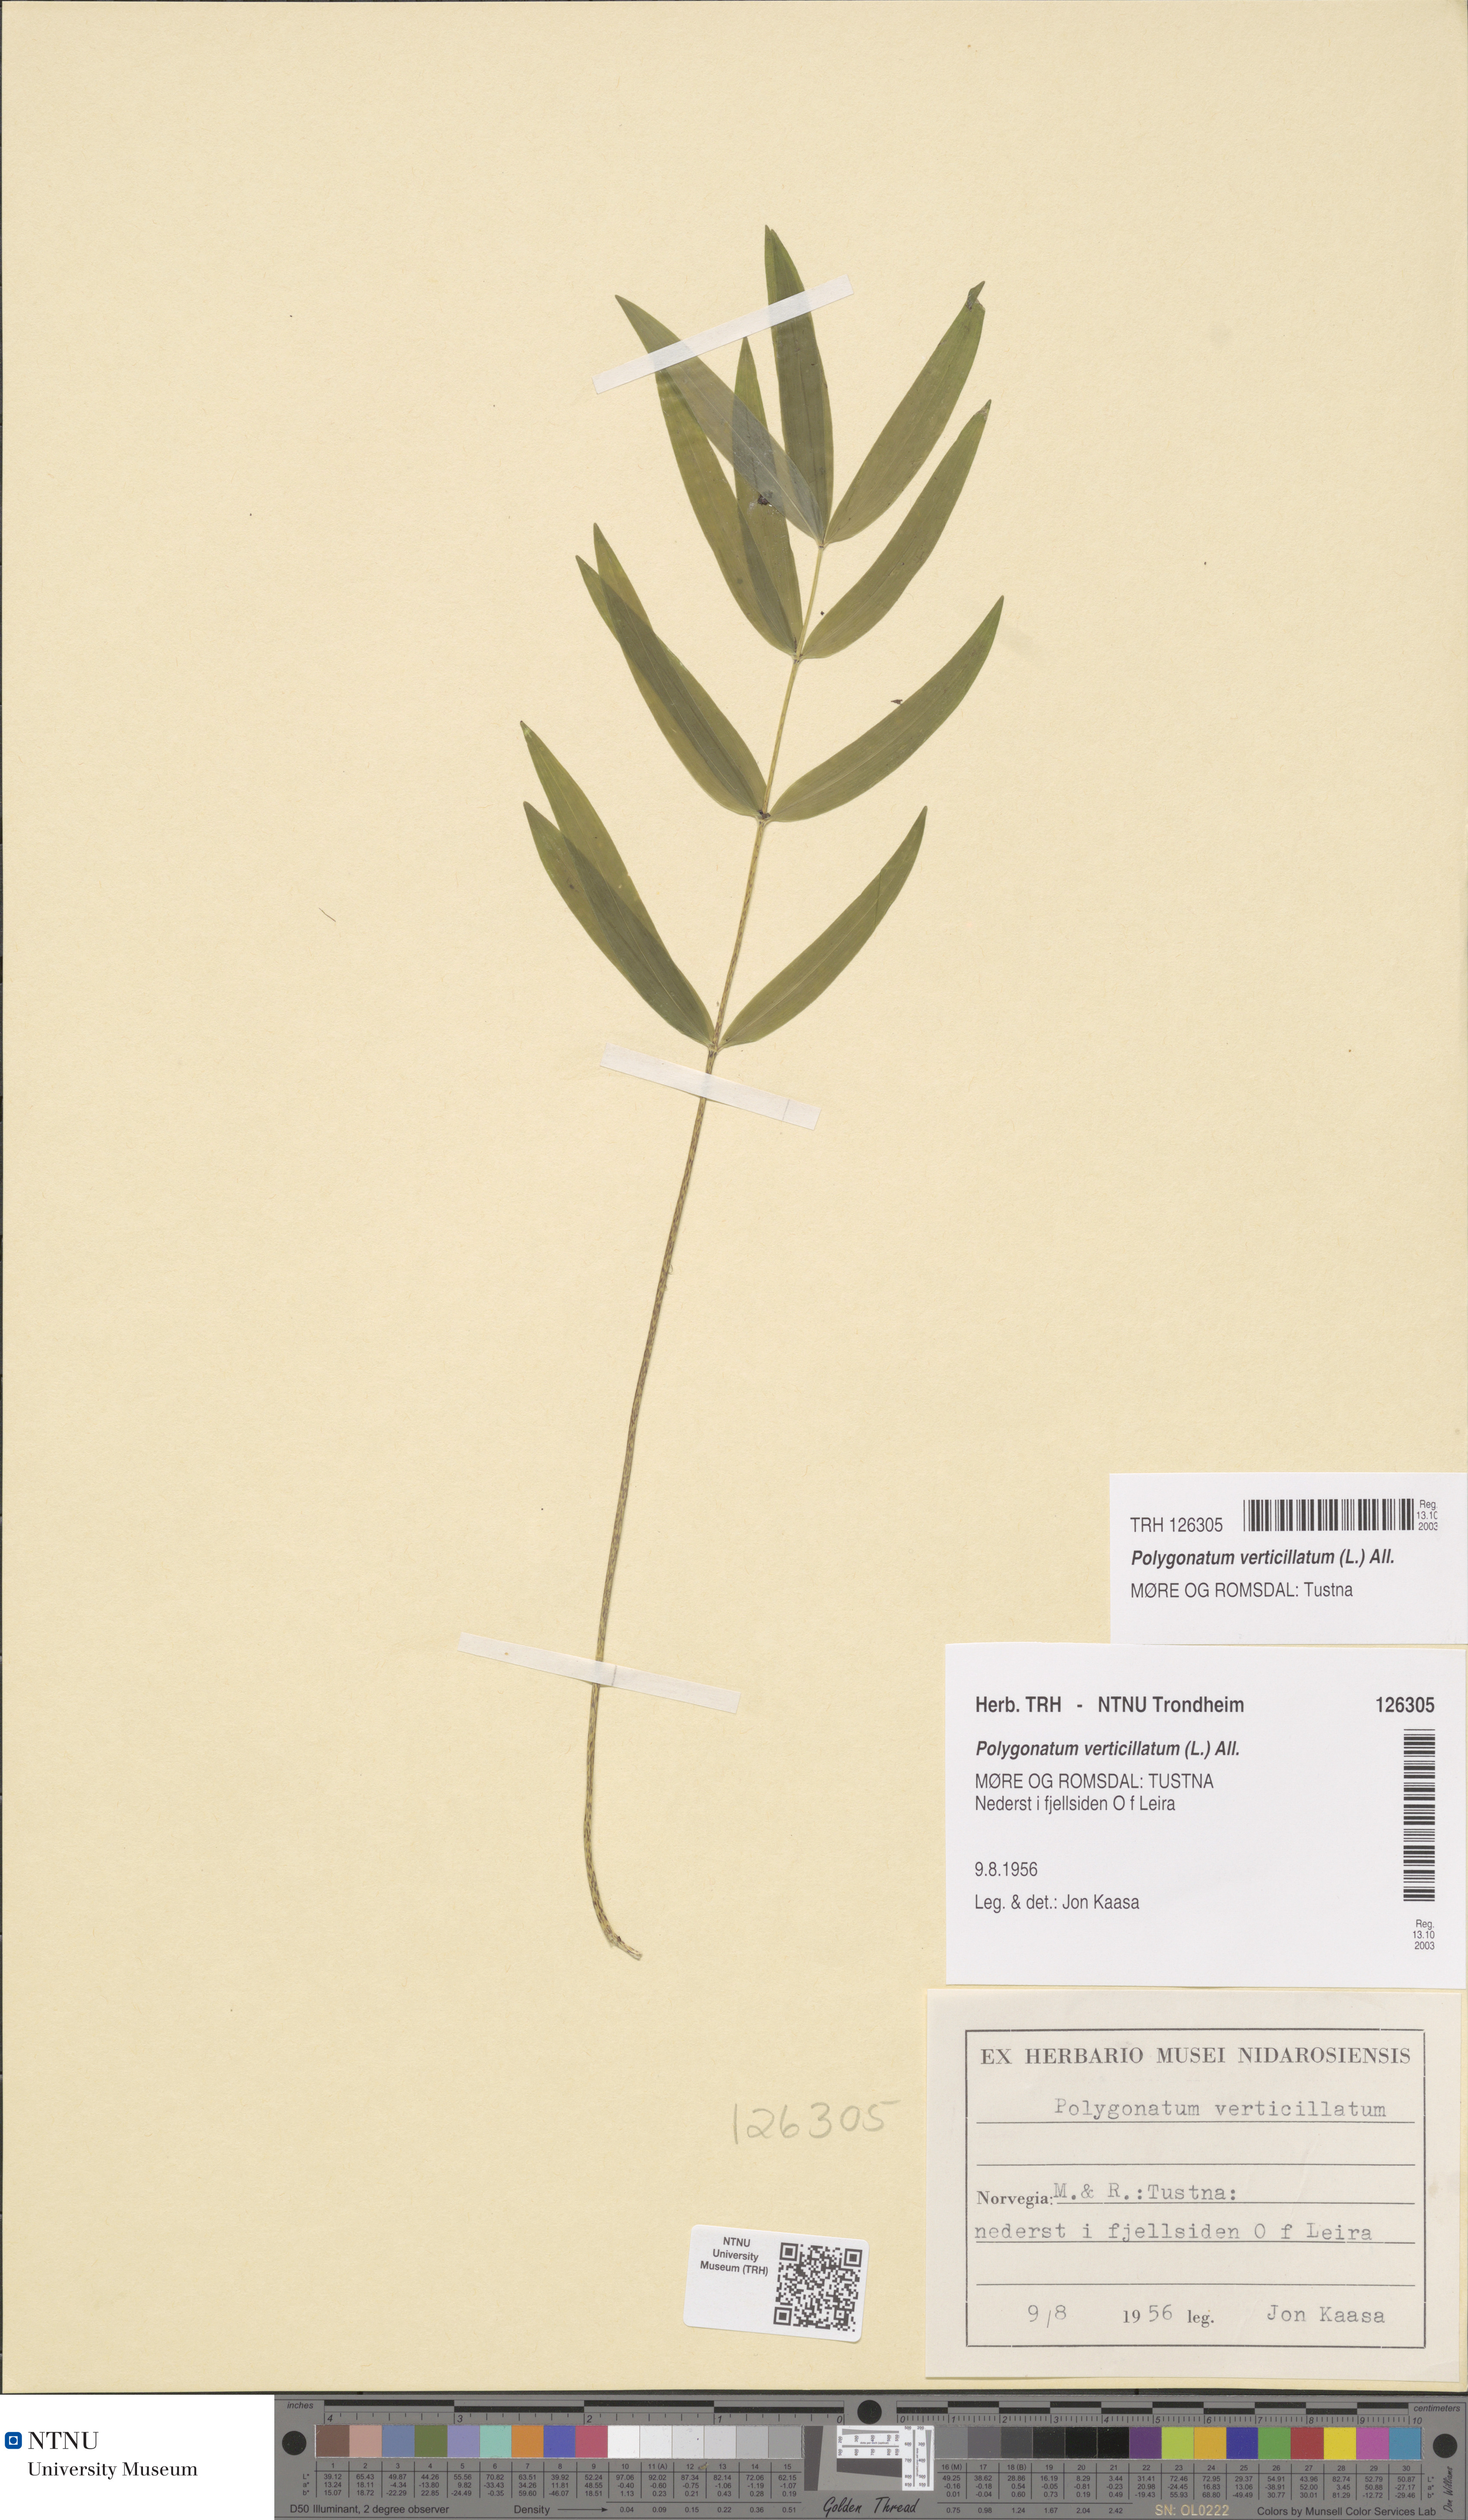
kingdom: Plantae
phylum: Tracheophyta
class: Liliopsida
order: Asparagales
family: Asparagaceae
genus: Polygonatum
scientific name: Polygonatum verticillatum
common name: Whorled solomon's-seal
